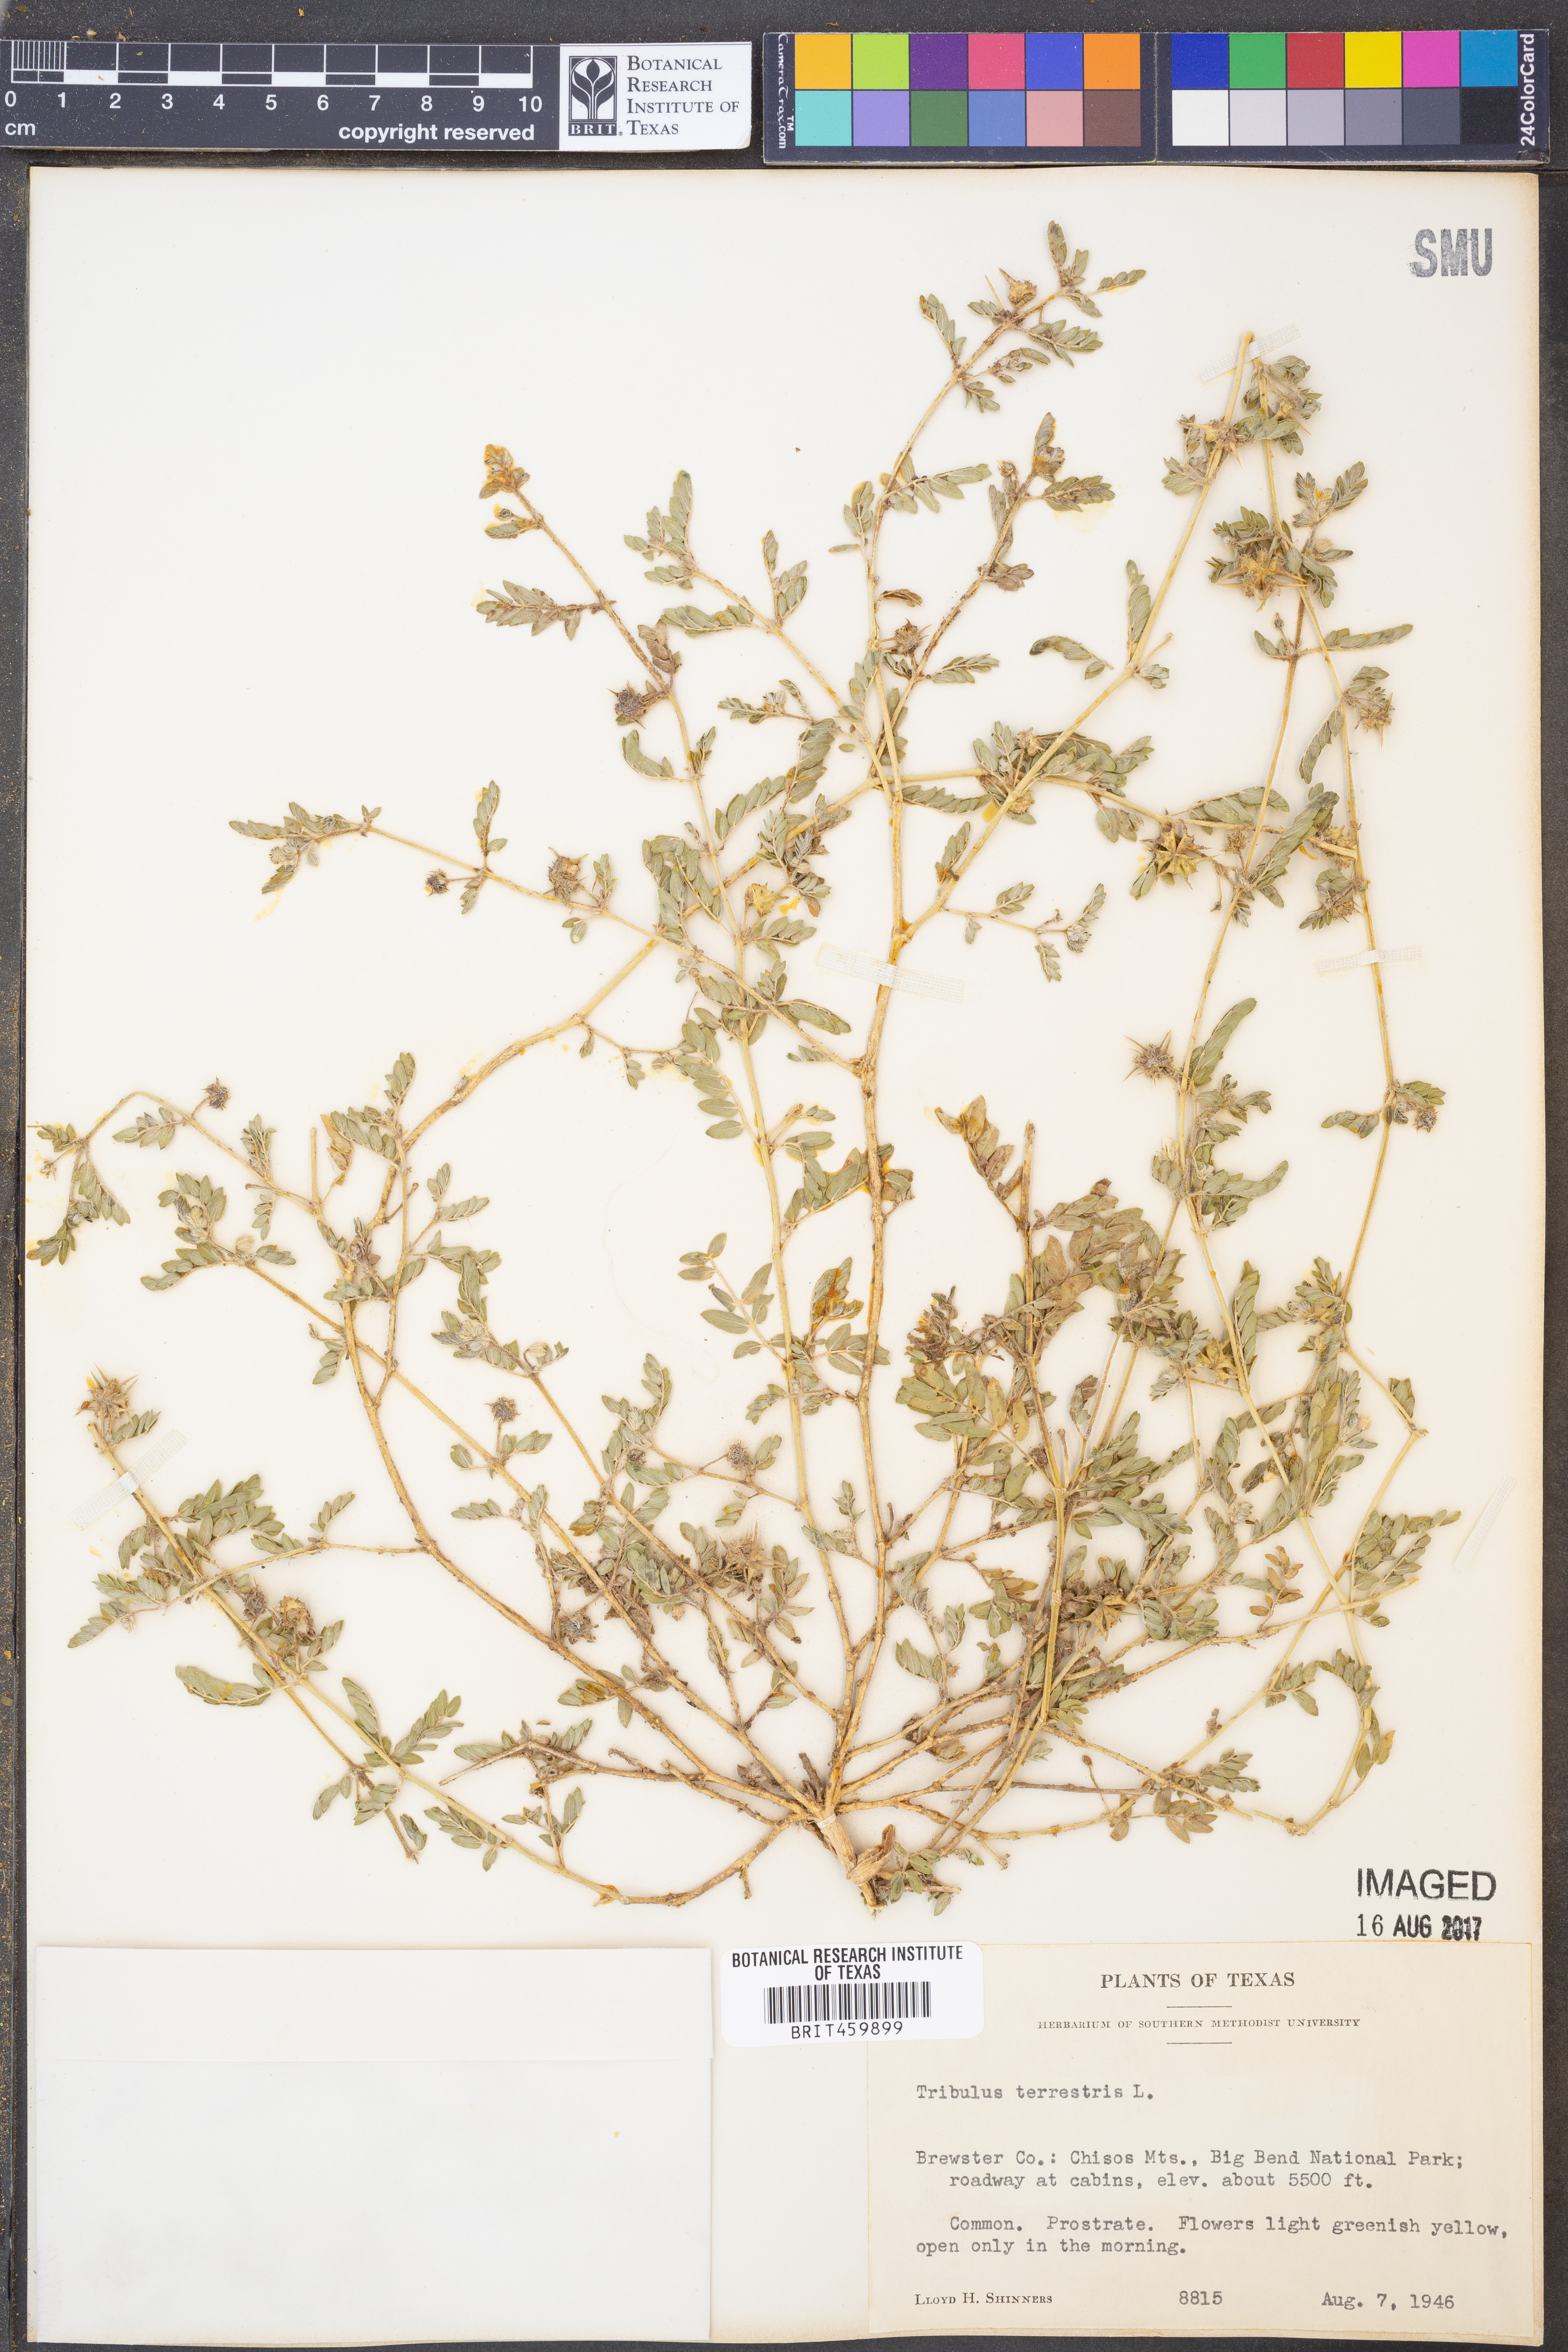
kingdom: Plantae
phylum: Tracheophyta
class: Magnoliopsida
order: Zygophyllales
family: Zygophyllaceae
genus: Tribulus
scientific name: Tribulus terrestris
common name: Puncturevine
